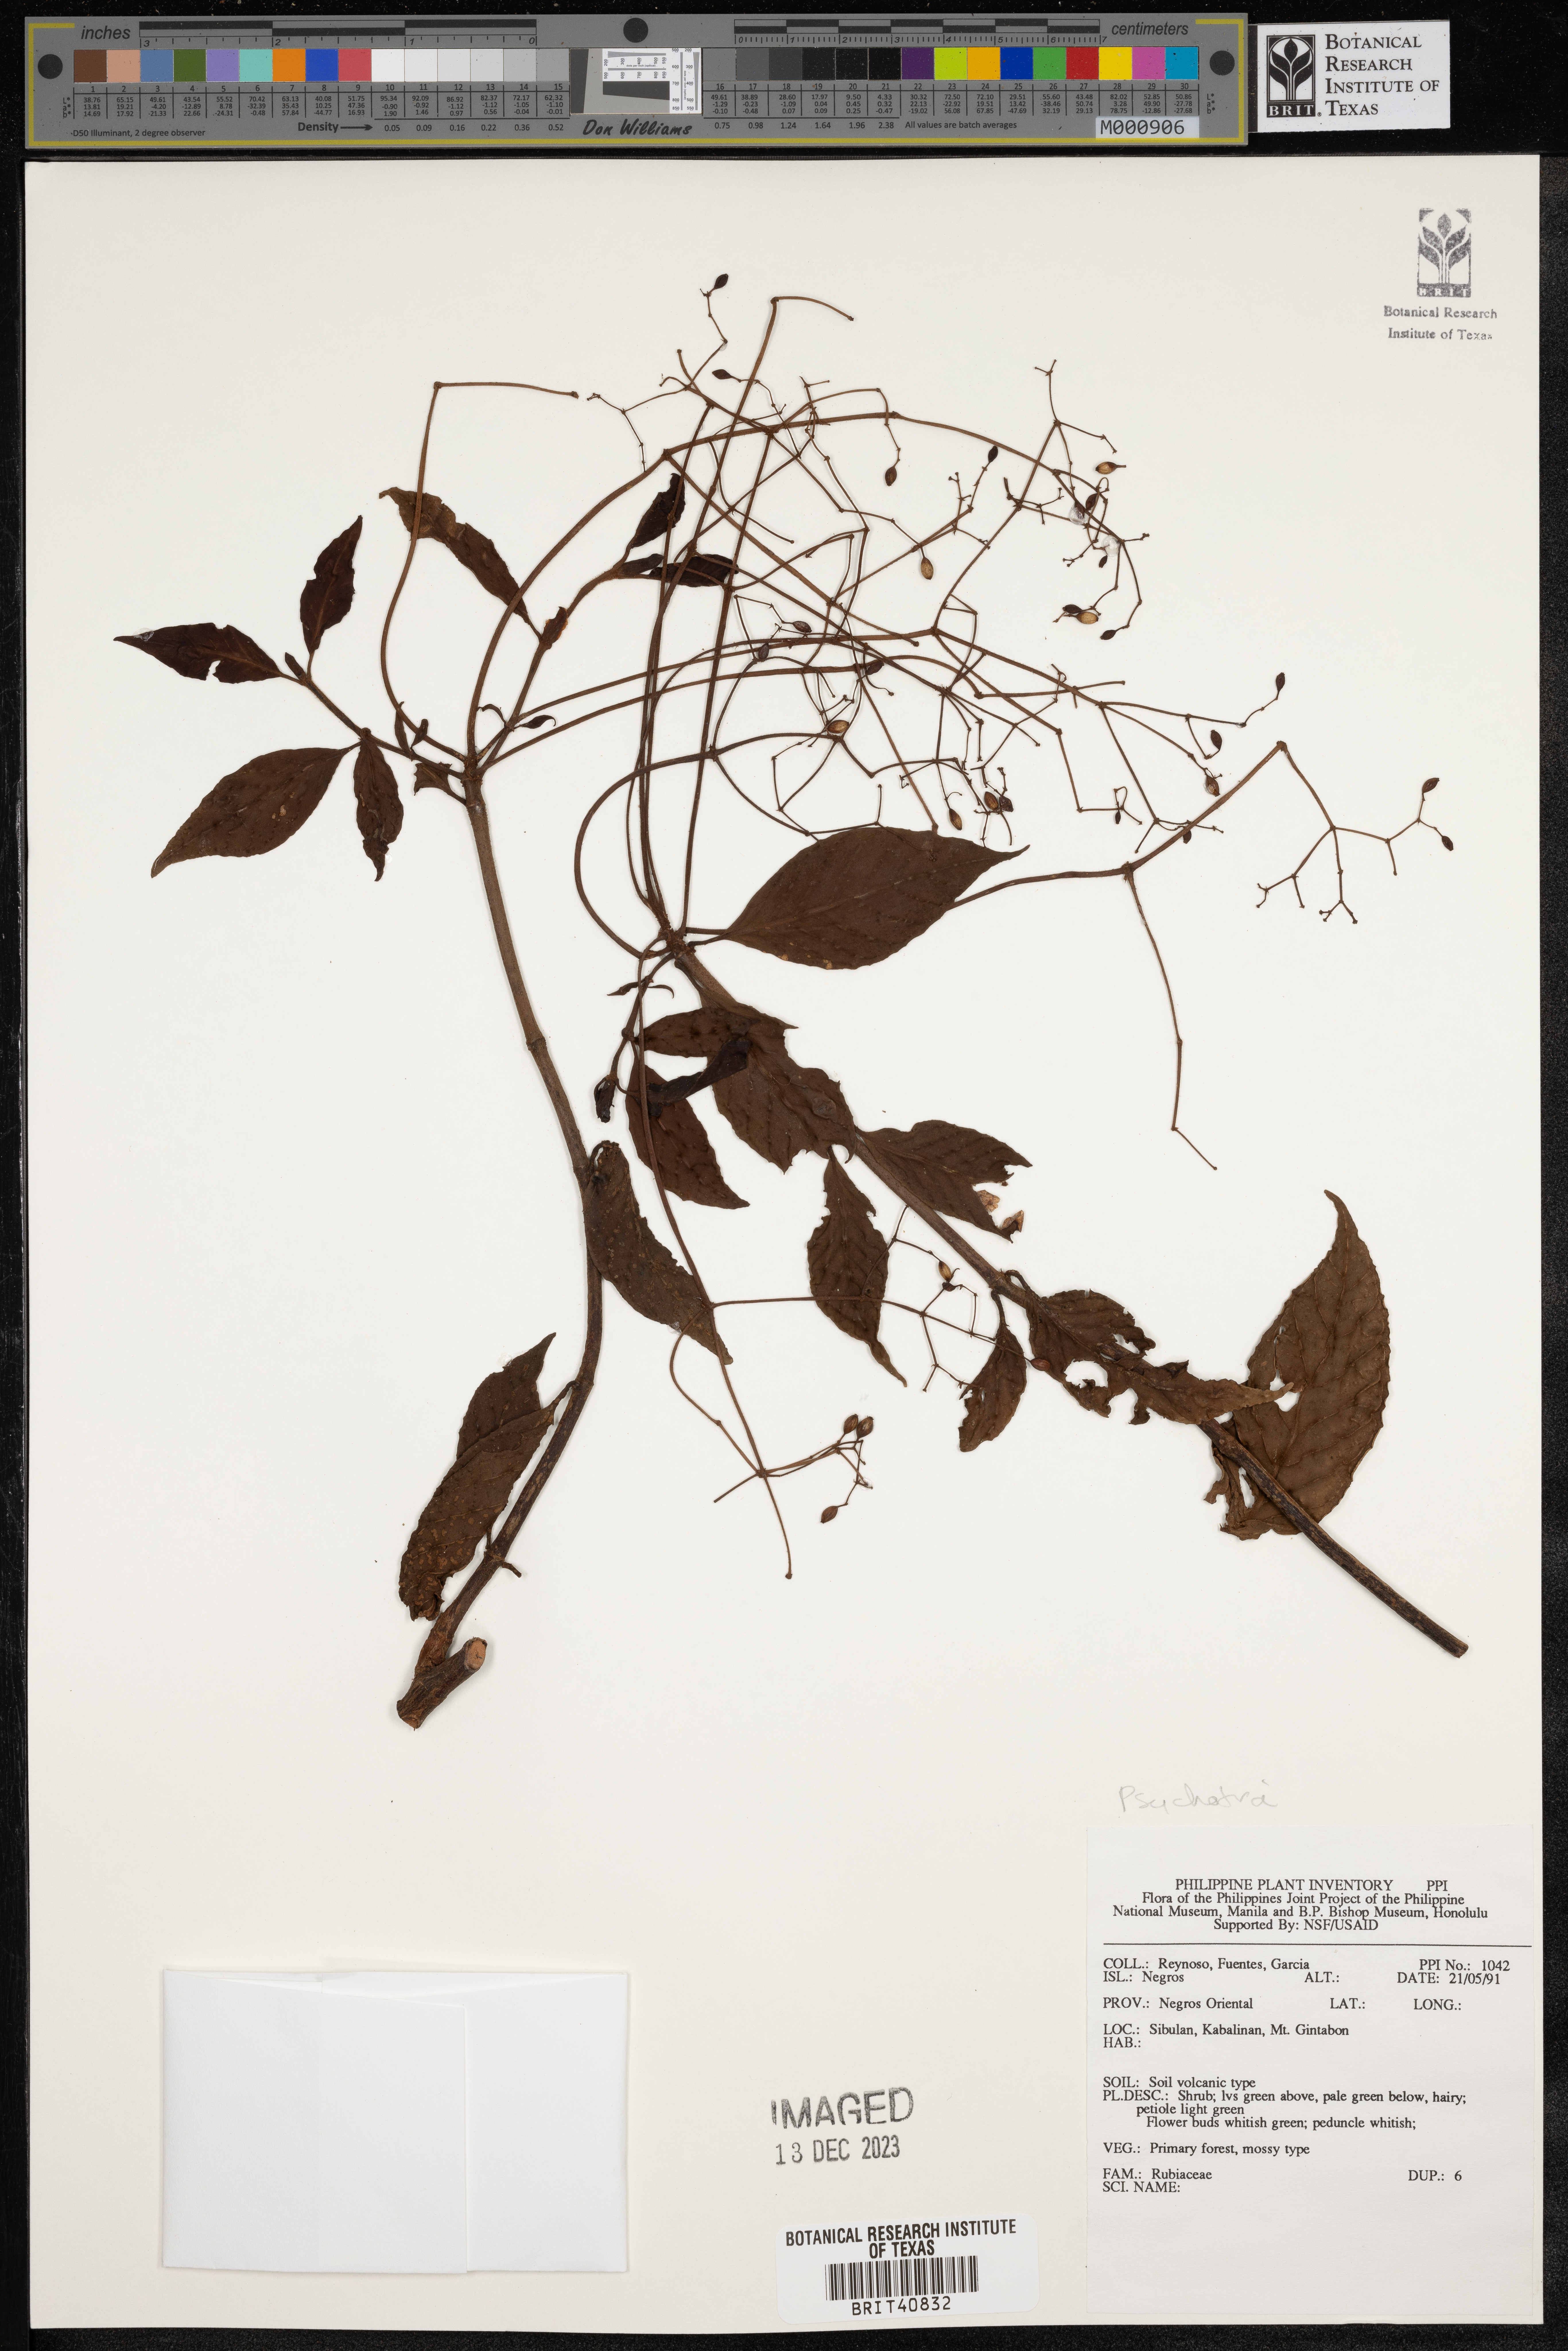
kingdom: Plantae
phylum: Tracheophyta
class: Magnoliopsida
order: Gentianales
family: Rubiaceae
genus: Psychotria
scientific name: Psychotria
